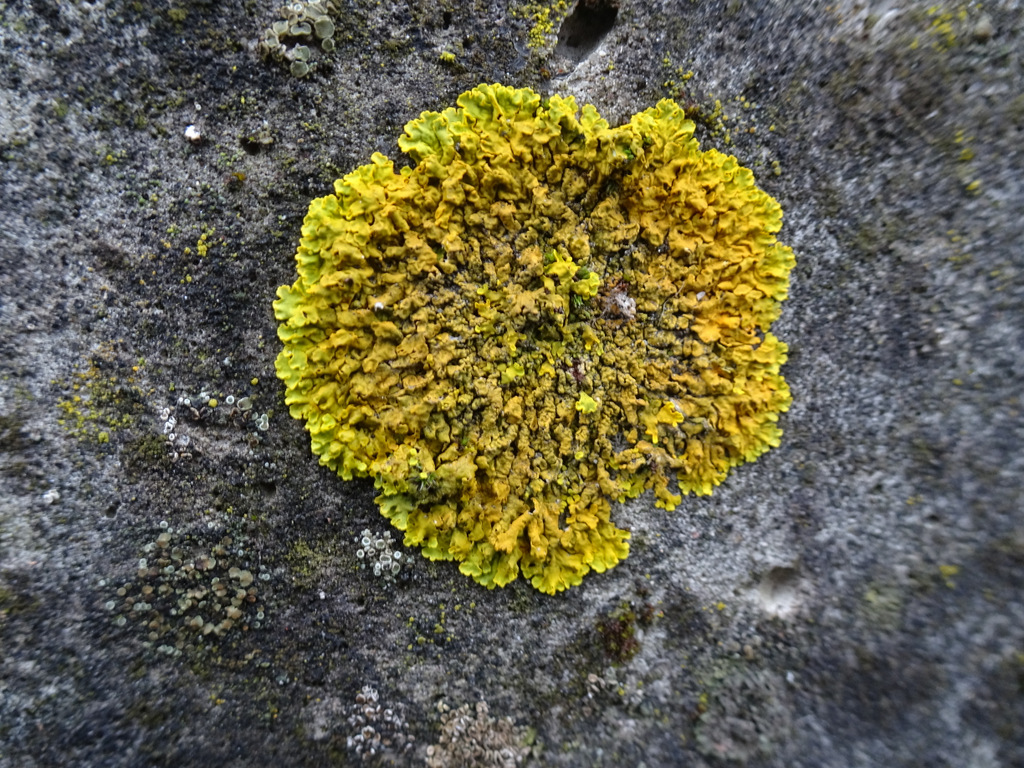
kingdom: Fungi
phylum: Ascomycota
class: Lecanoromycetes
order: Teloschistales
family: Teloschistaceae
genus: Xanthoria
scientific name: Xanthoria aureola
